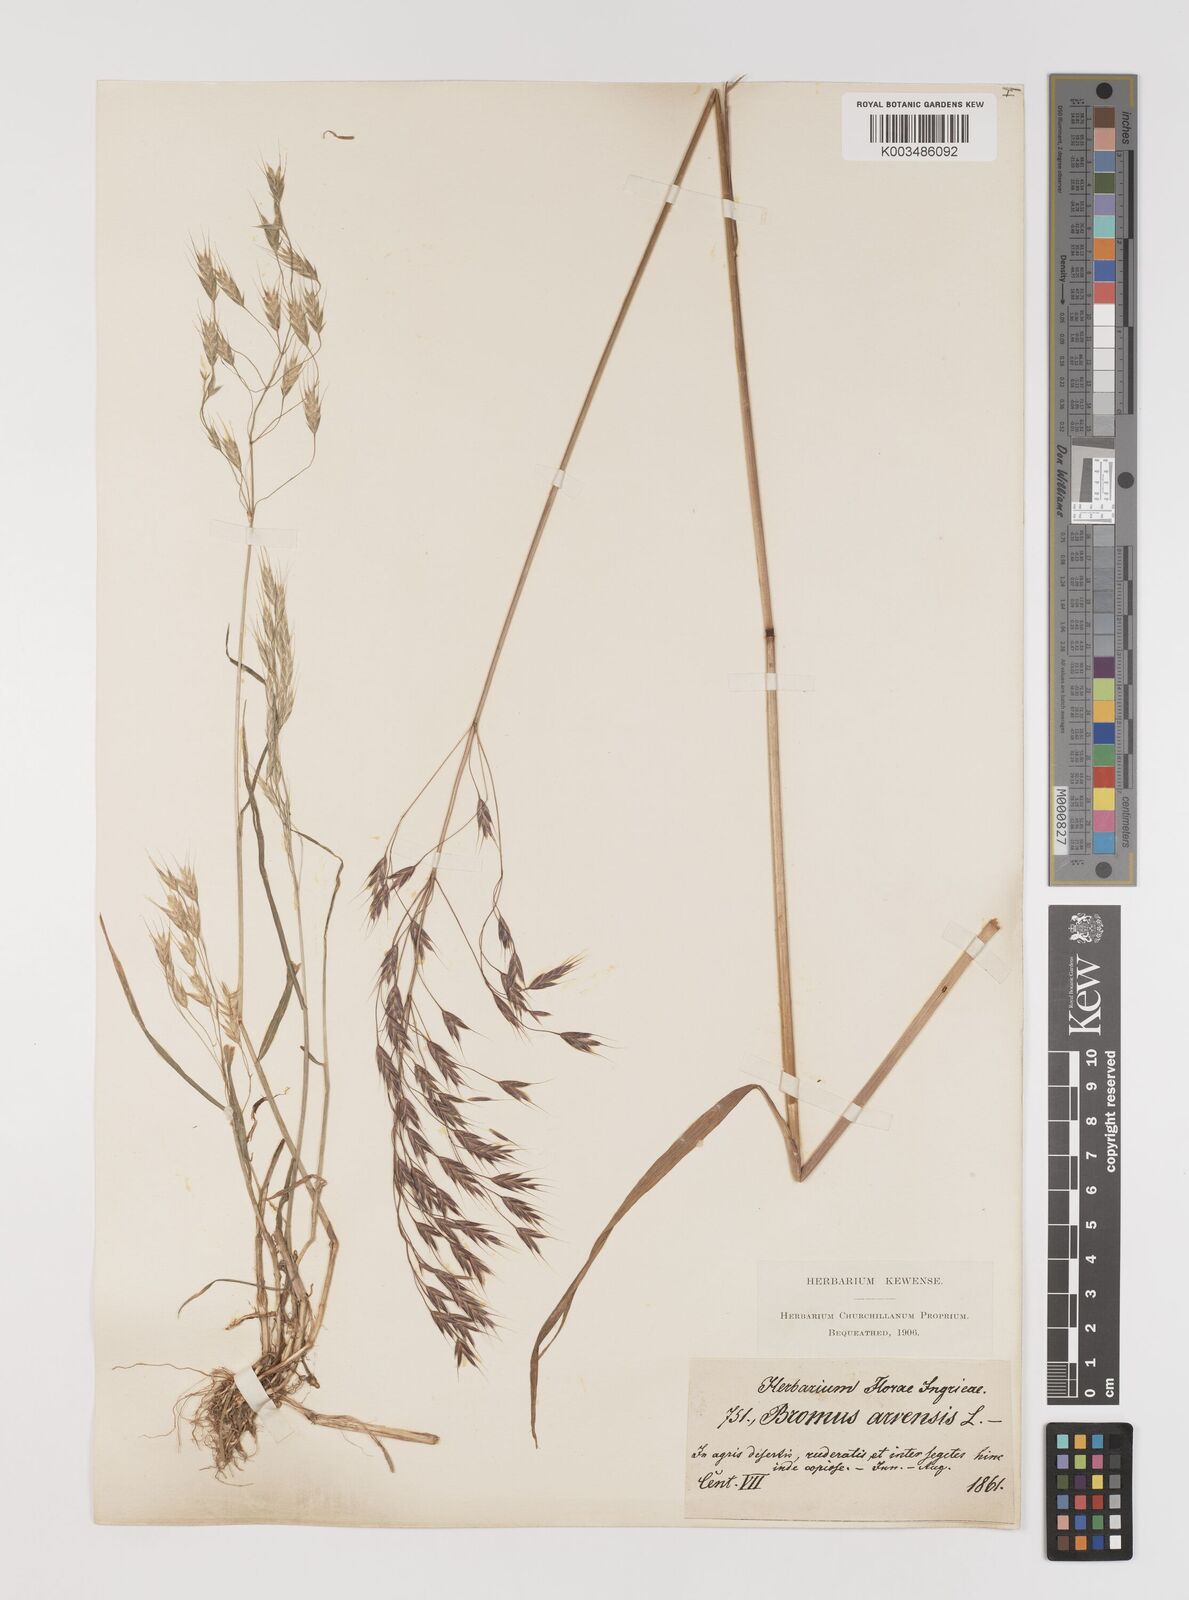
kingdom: Plantae
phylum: Tracheophyta
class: Liliopsida
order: Poales
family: Poaceae
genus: Bromus
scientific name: Bromus arvensis
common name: Field brome
